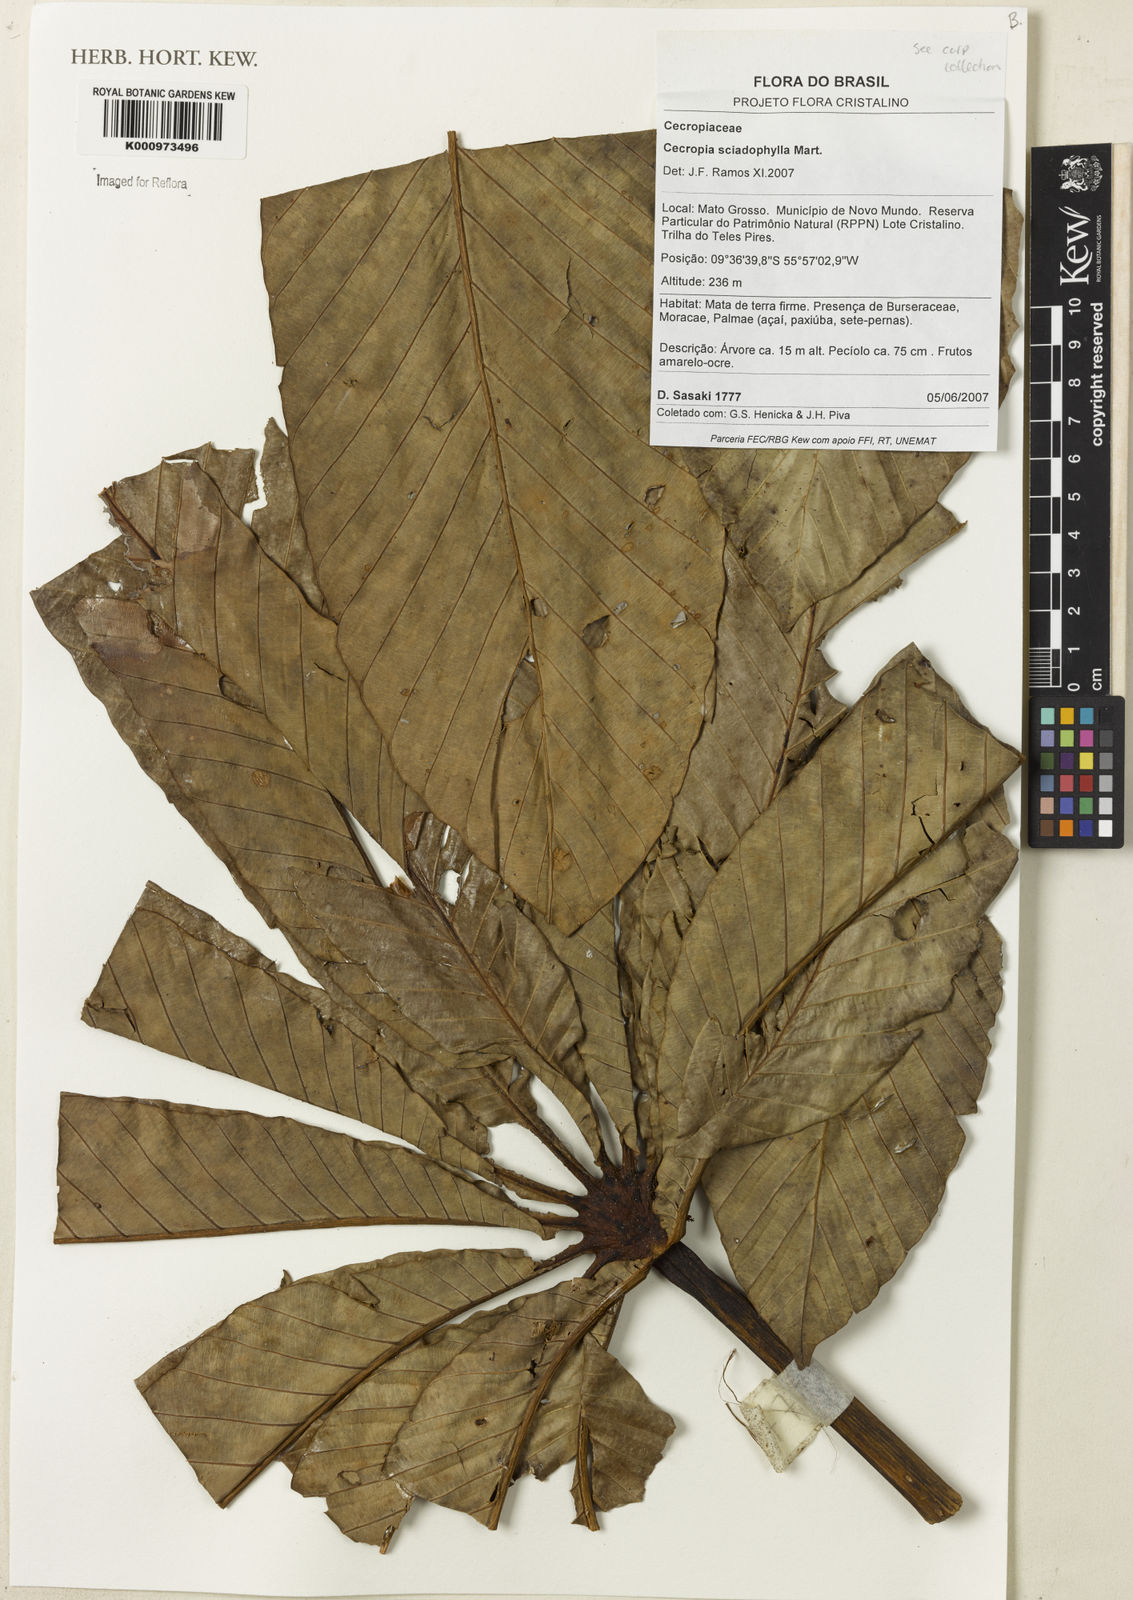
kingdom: Plantae
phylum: Tracheophyta
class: Magnoliopsida
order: Rosales
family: Urticaceae
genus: Cecropia
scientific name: Cecropia sciadophylla
